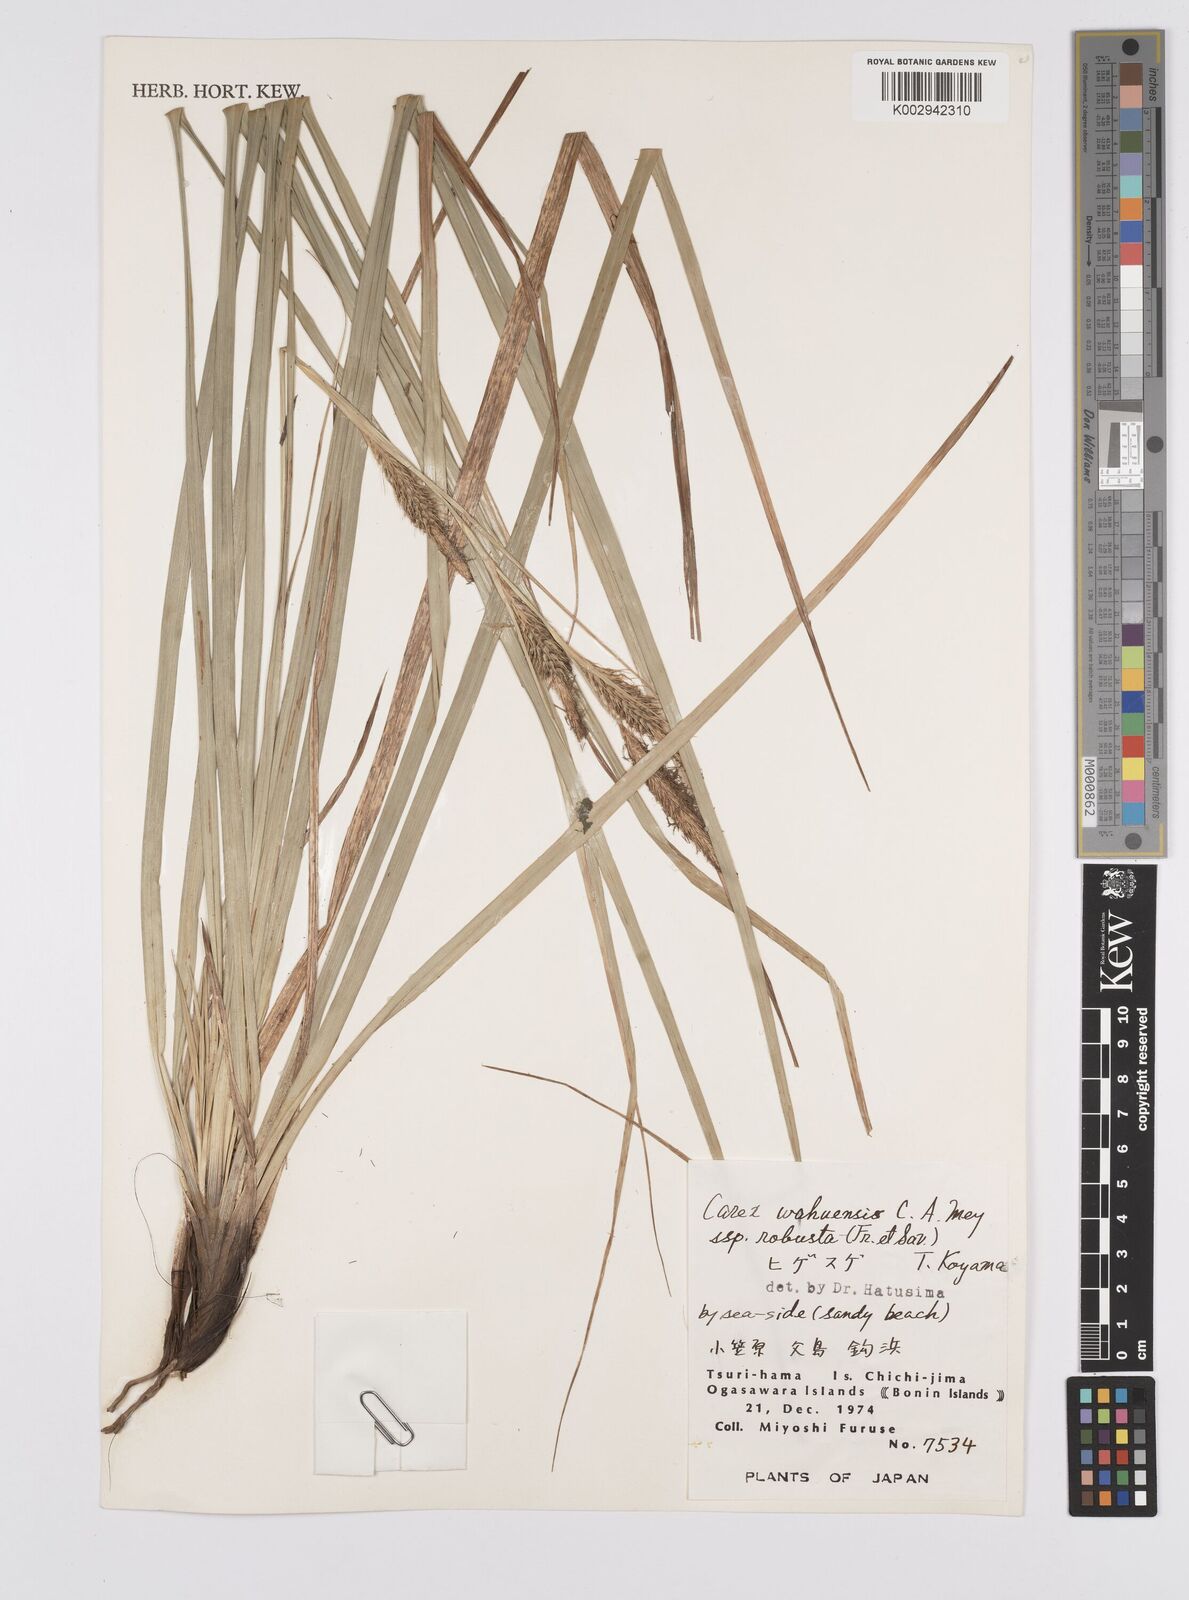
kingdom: Plantae
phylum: Tracheophyta
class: Liliopsida
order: Poales
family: Cyperaceae
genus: Carex
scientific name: Carex wahuensis
